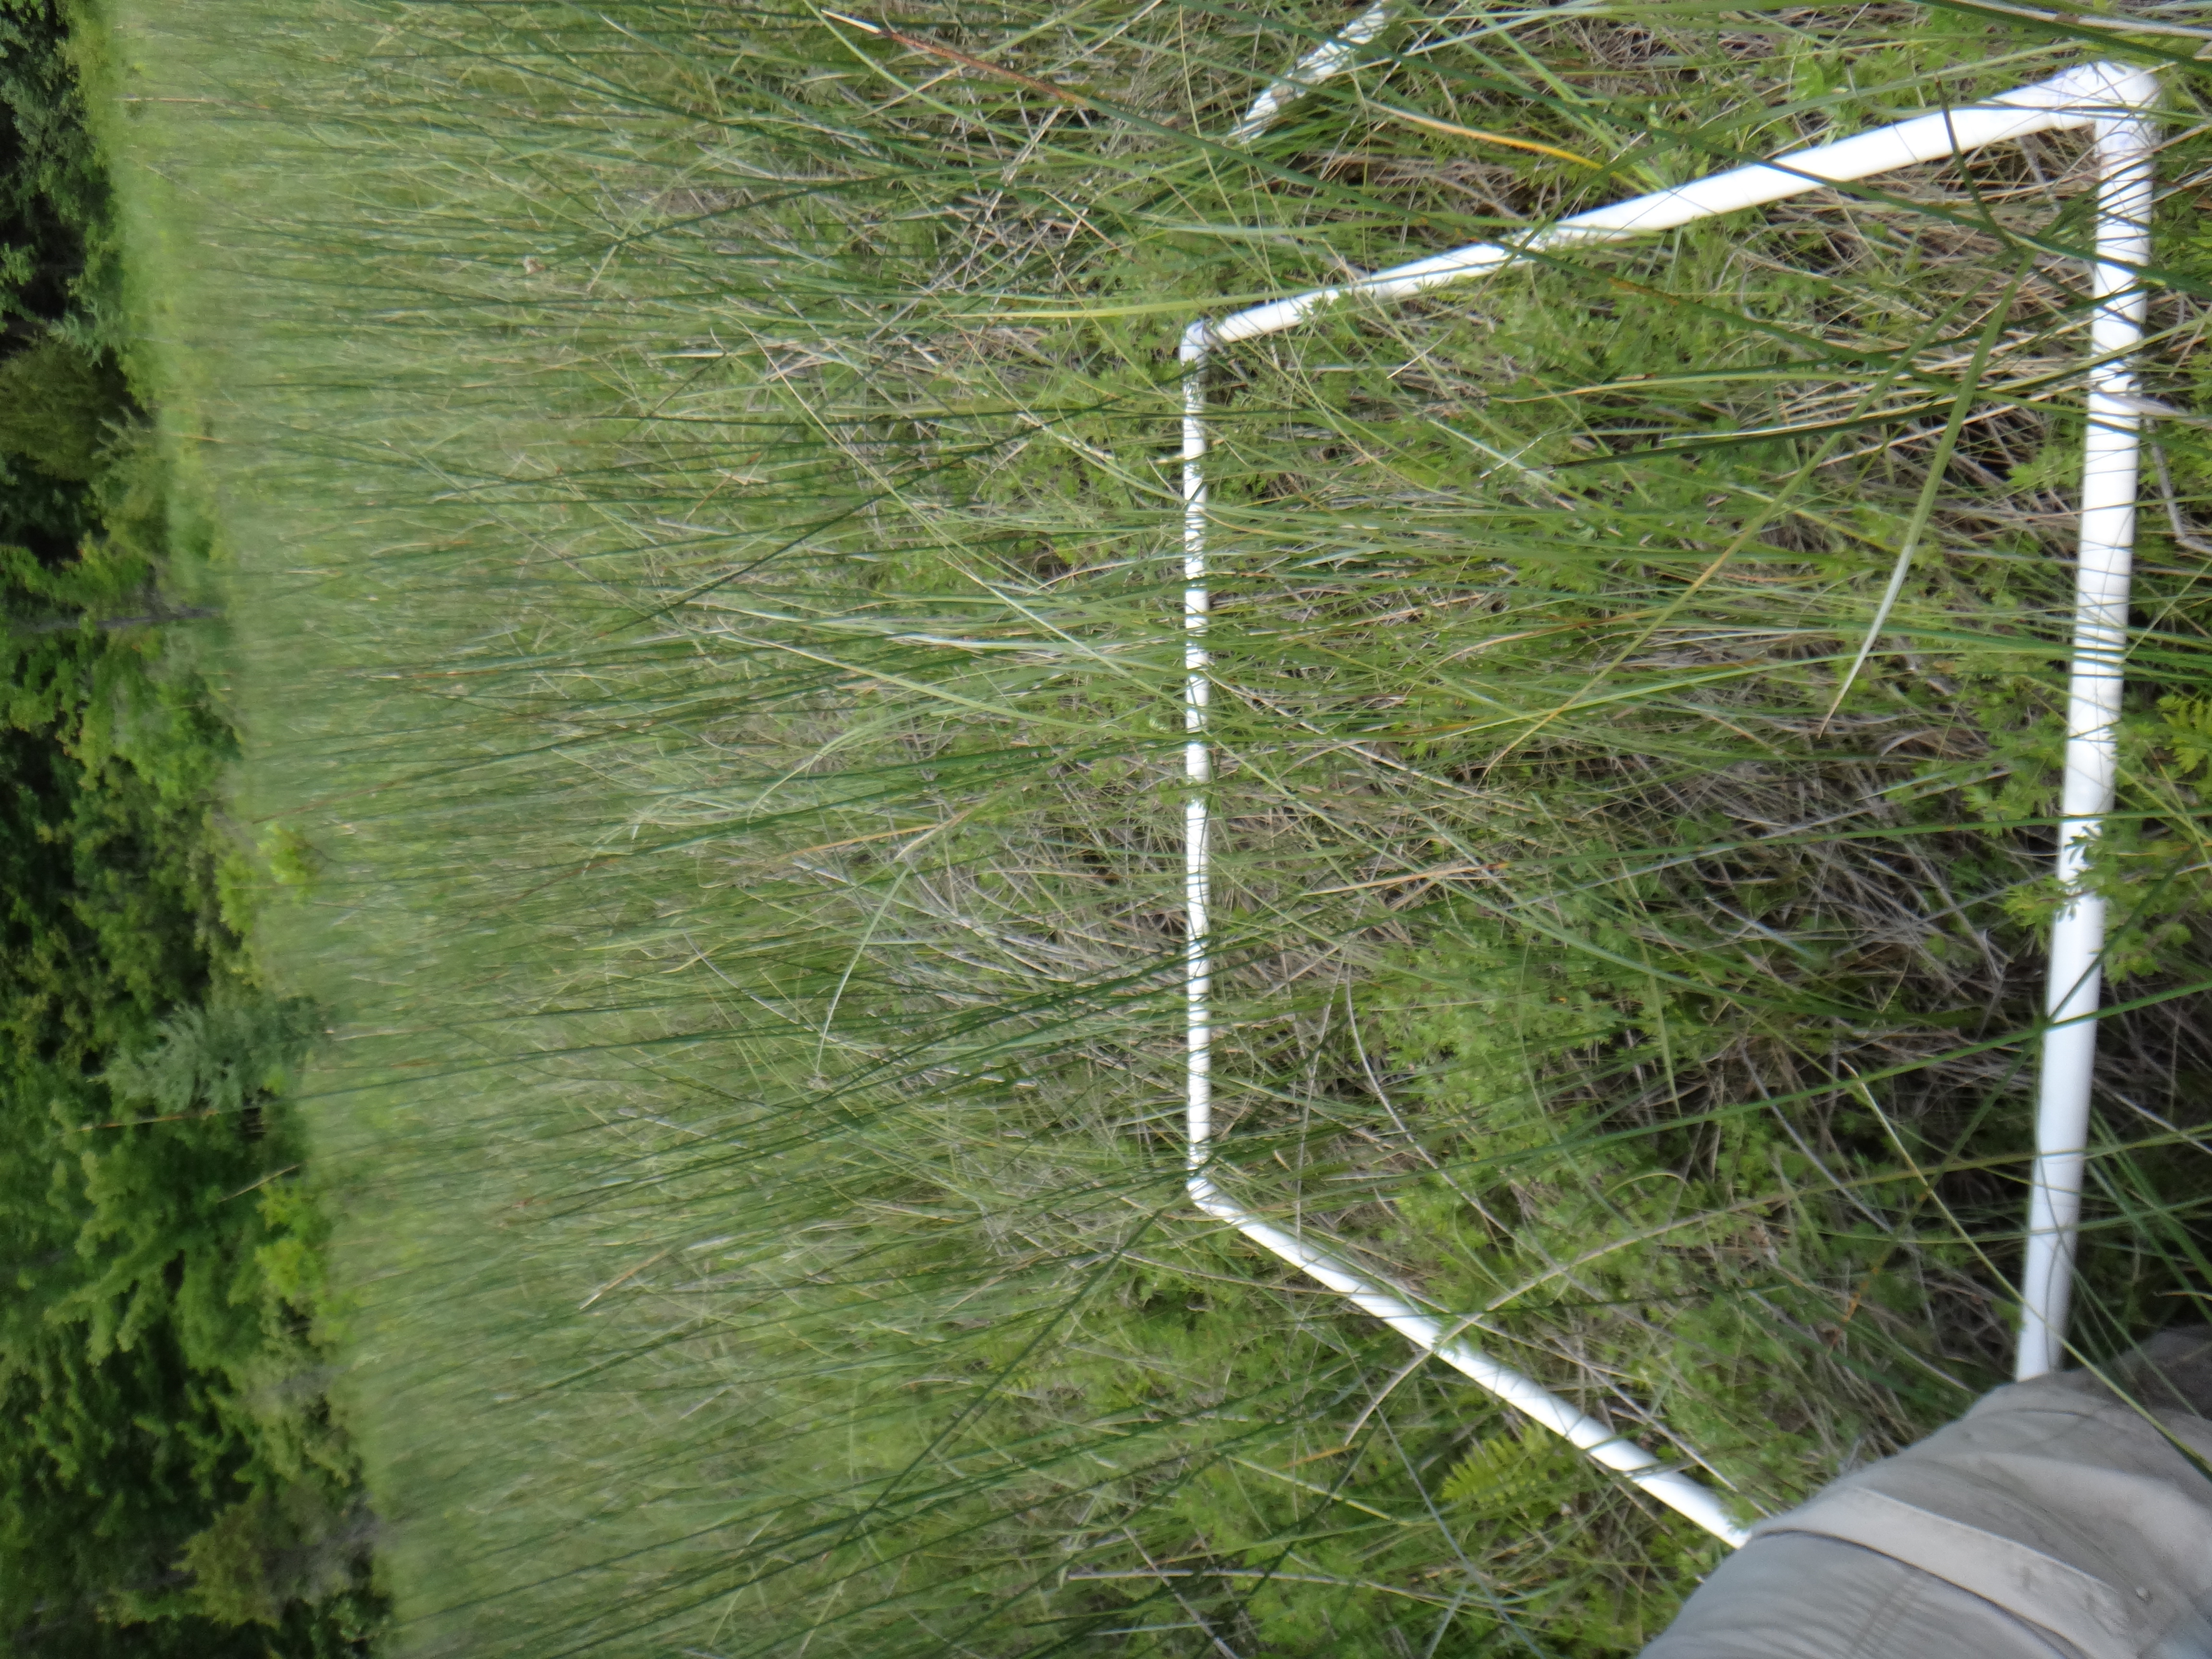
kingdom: Plantae
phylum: Tracheophyta
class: Liliopsida
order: Poales
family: Cyperaceae
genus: Carex
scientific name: Carex aquatilis
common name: Water sedge
